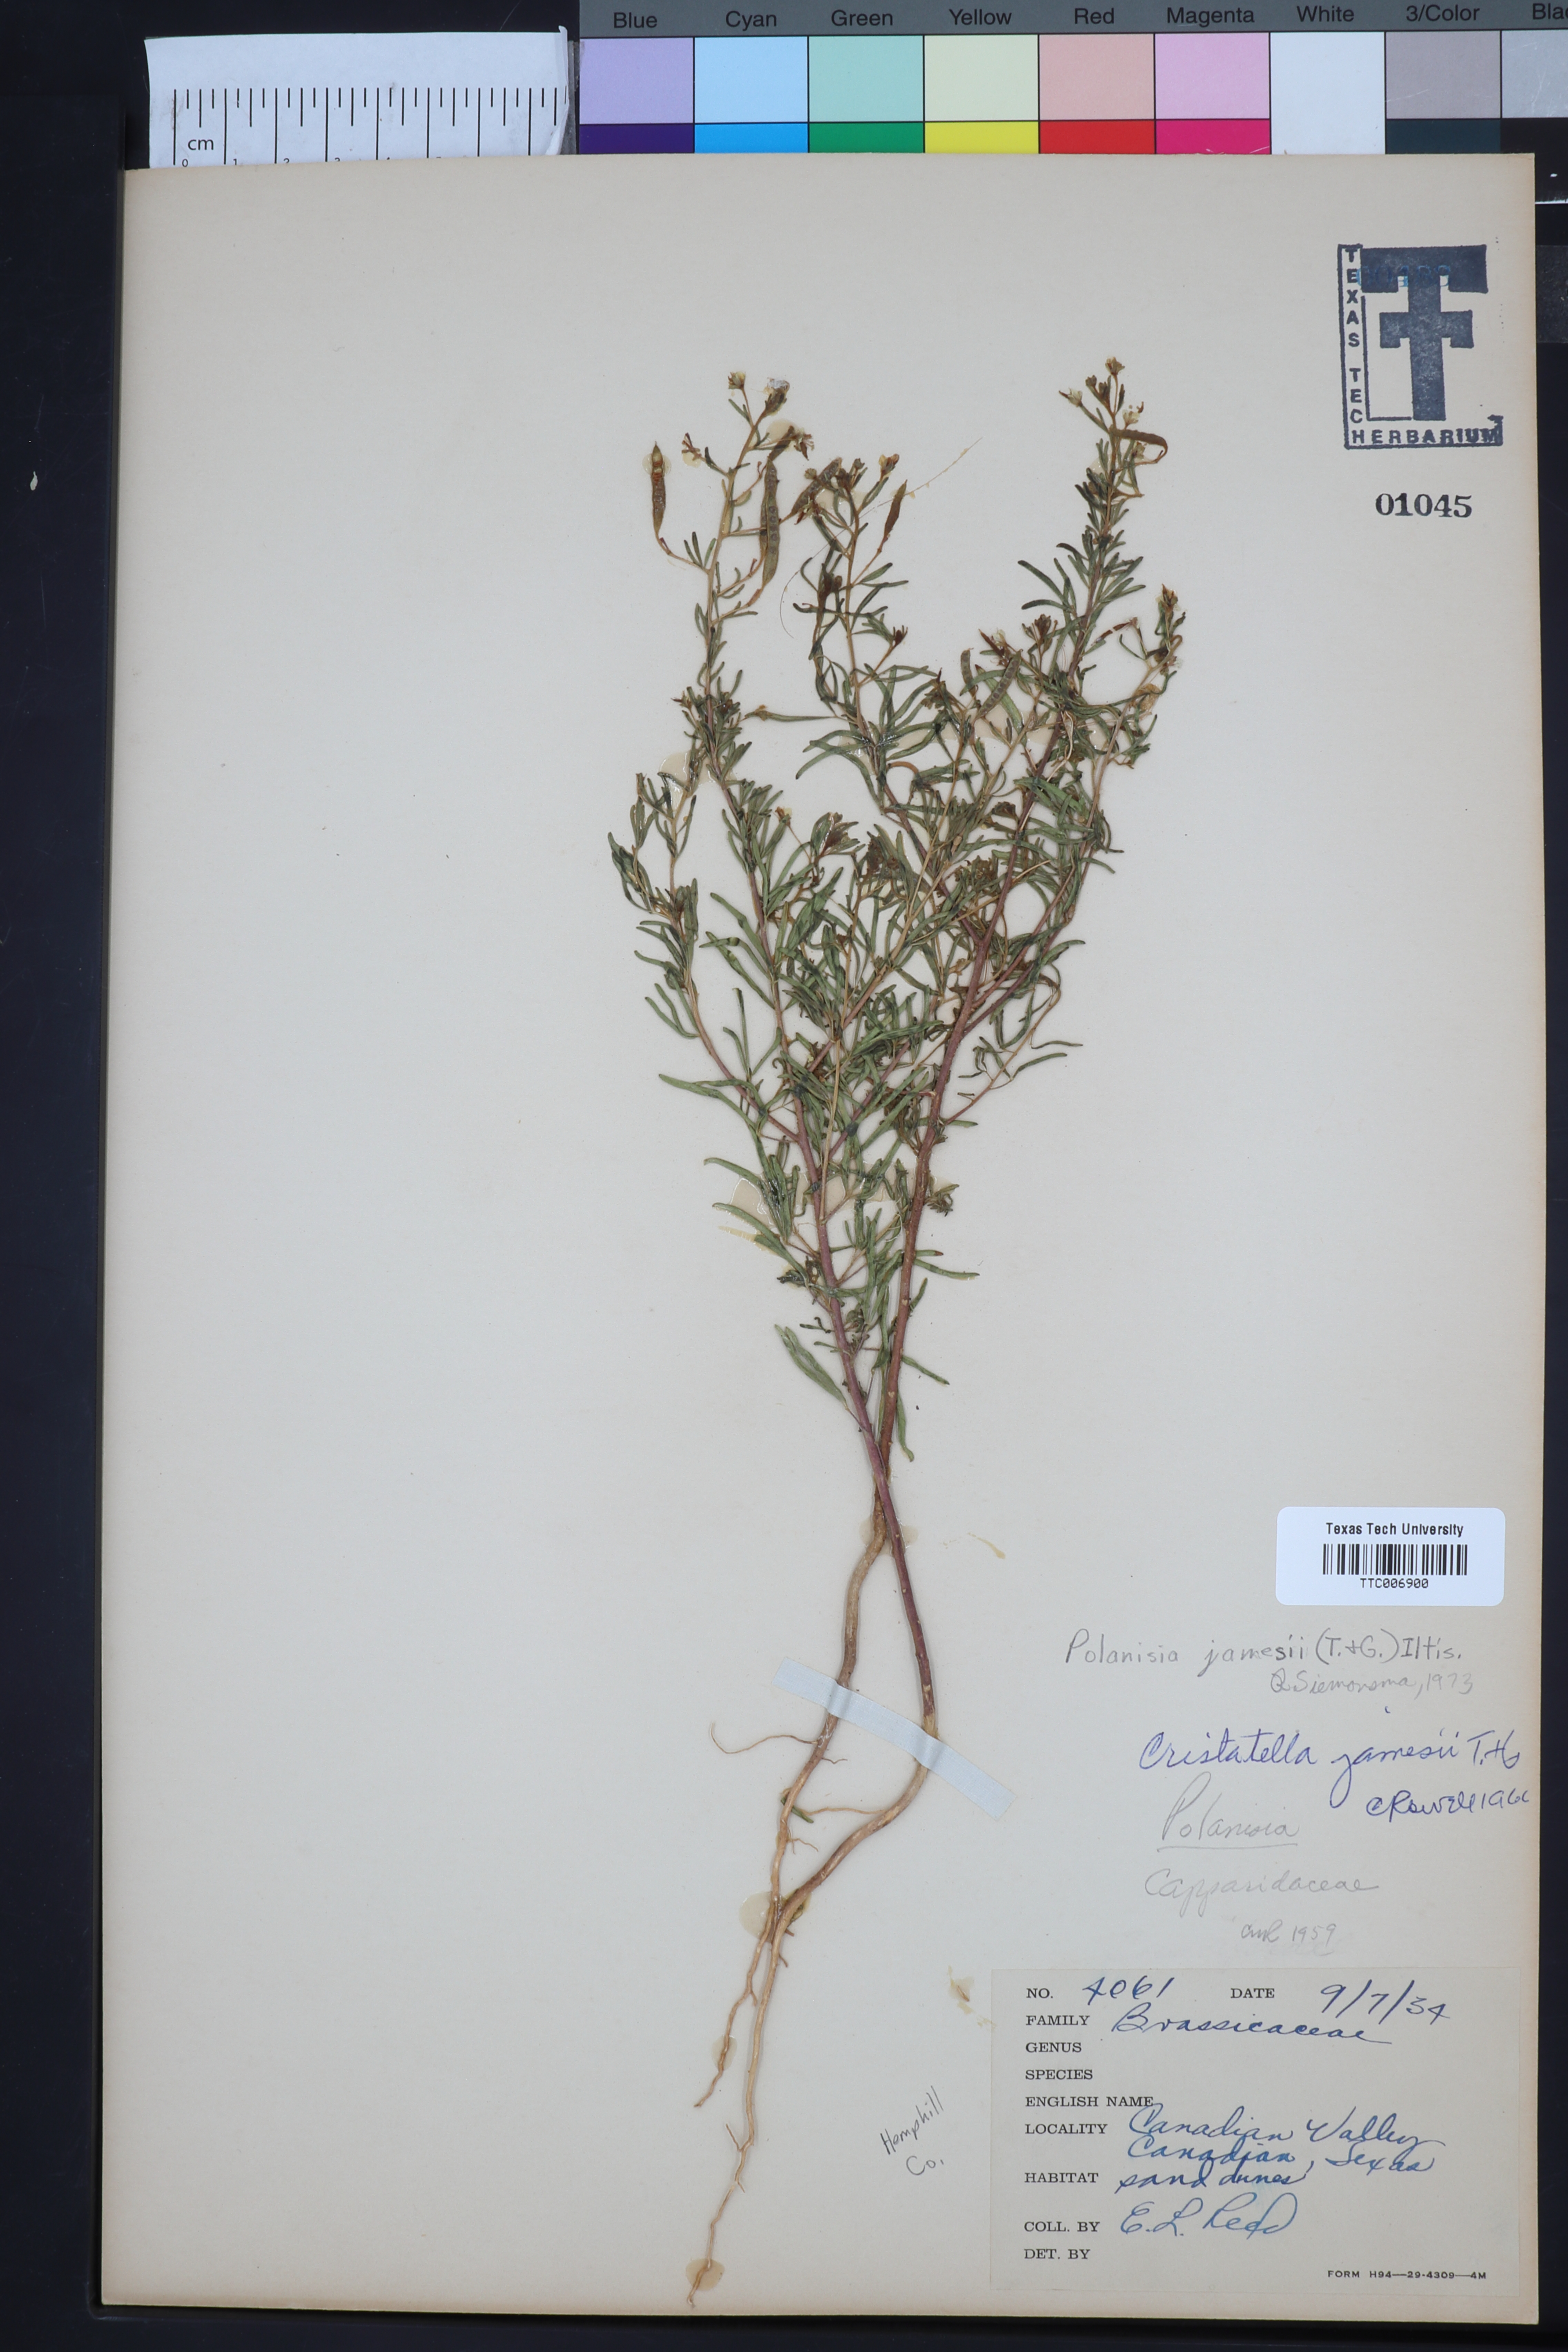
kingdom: Plantae
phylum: Tracheophyta
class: Magnoliopsida
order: Brassicales
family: Cleomaceae
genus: Polanisia
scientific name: Polanisia jamesii
